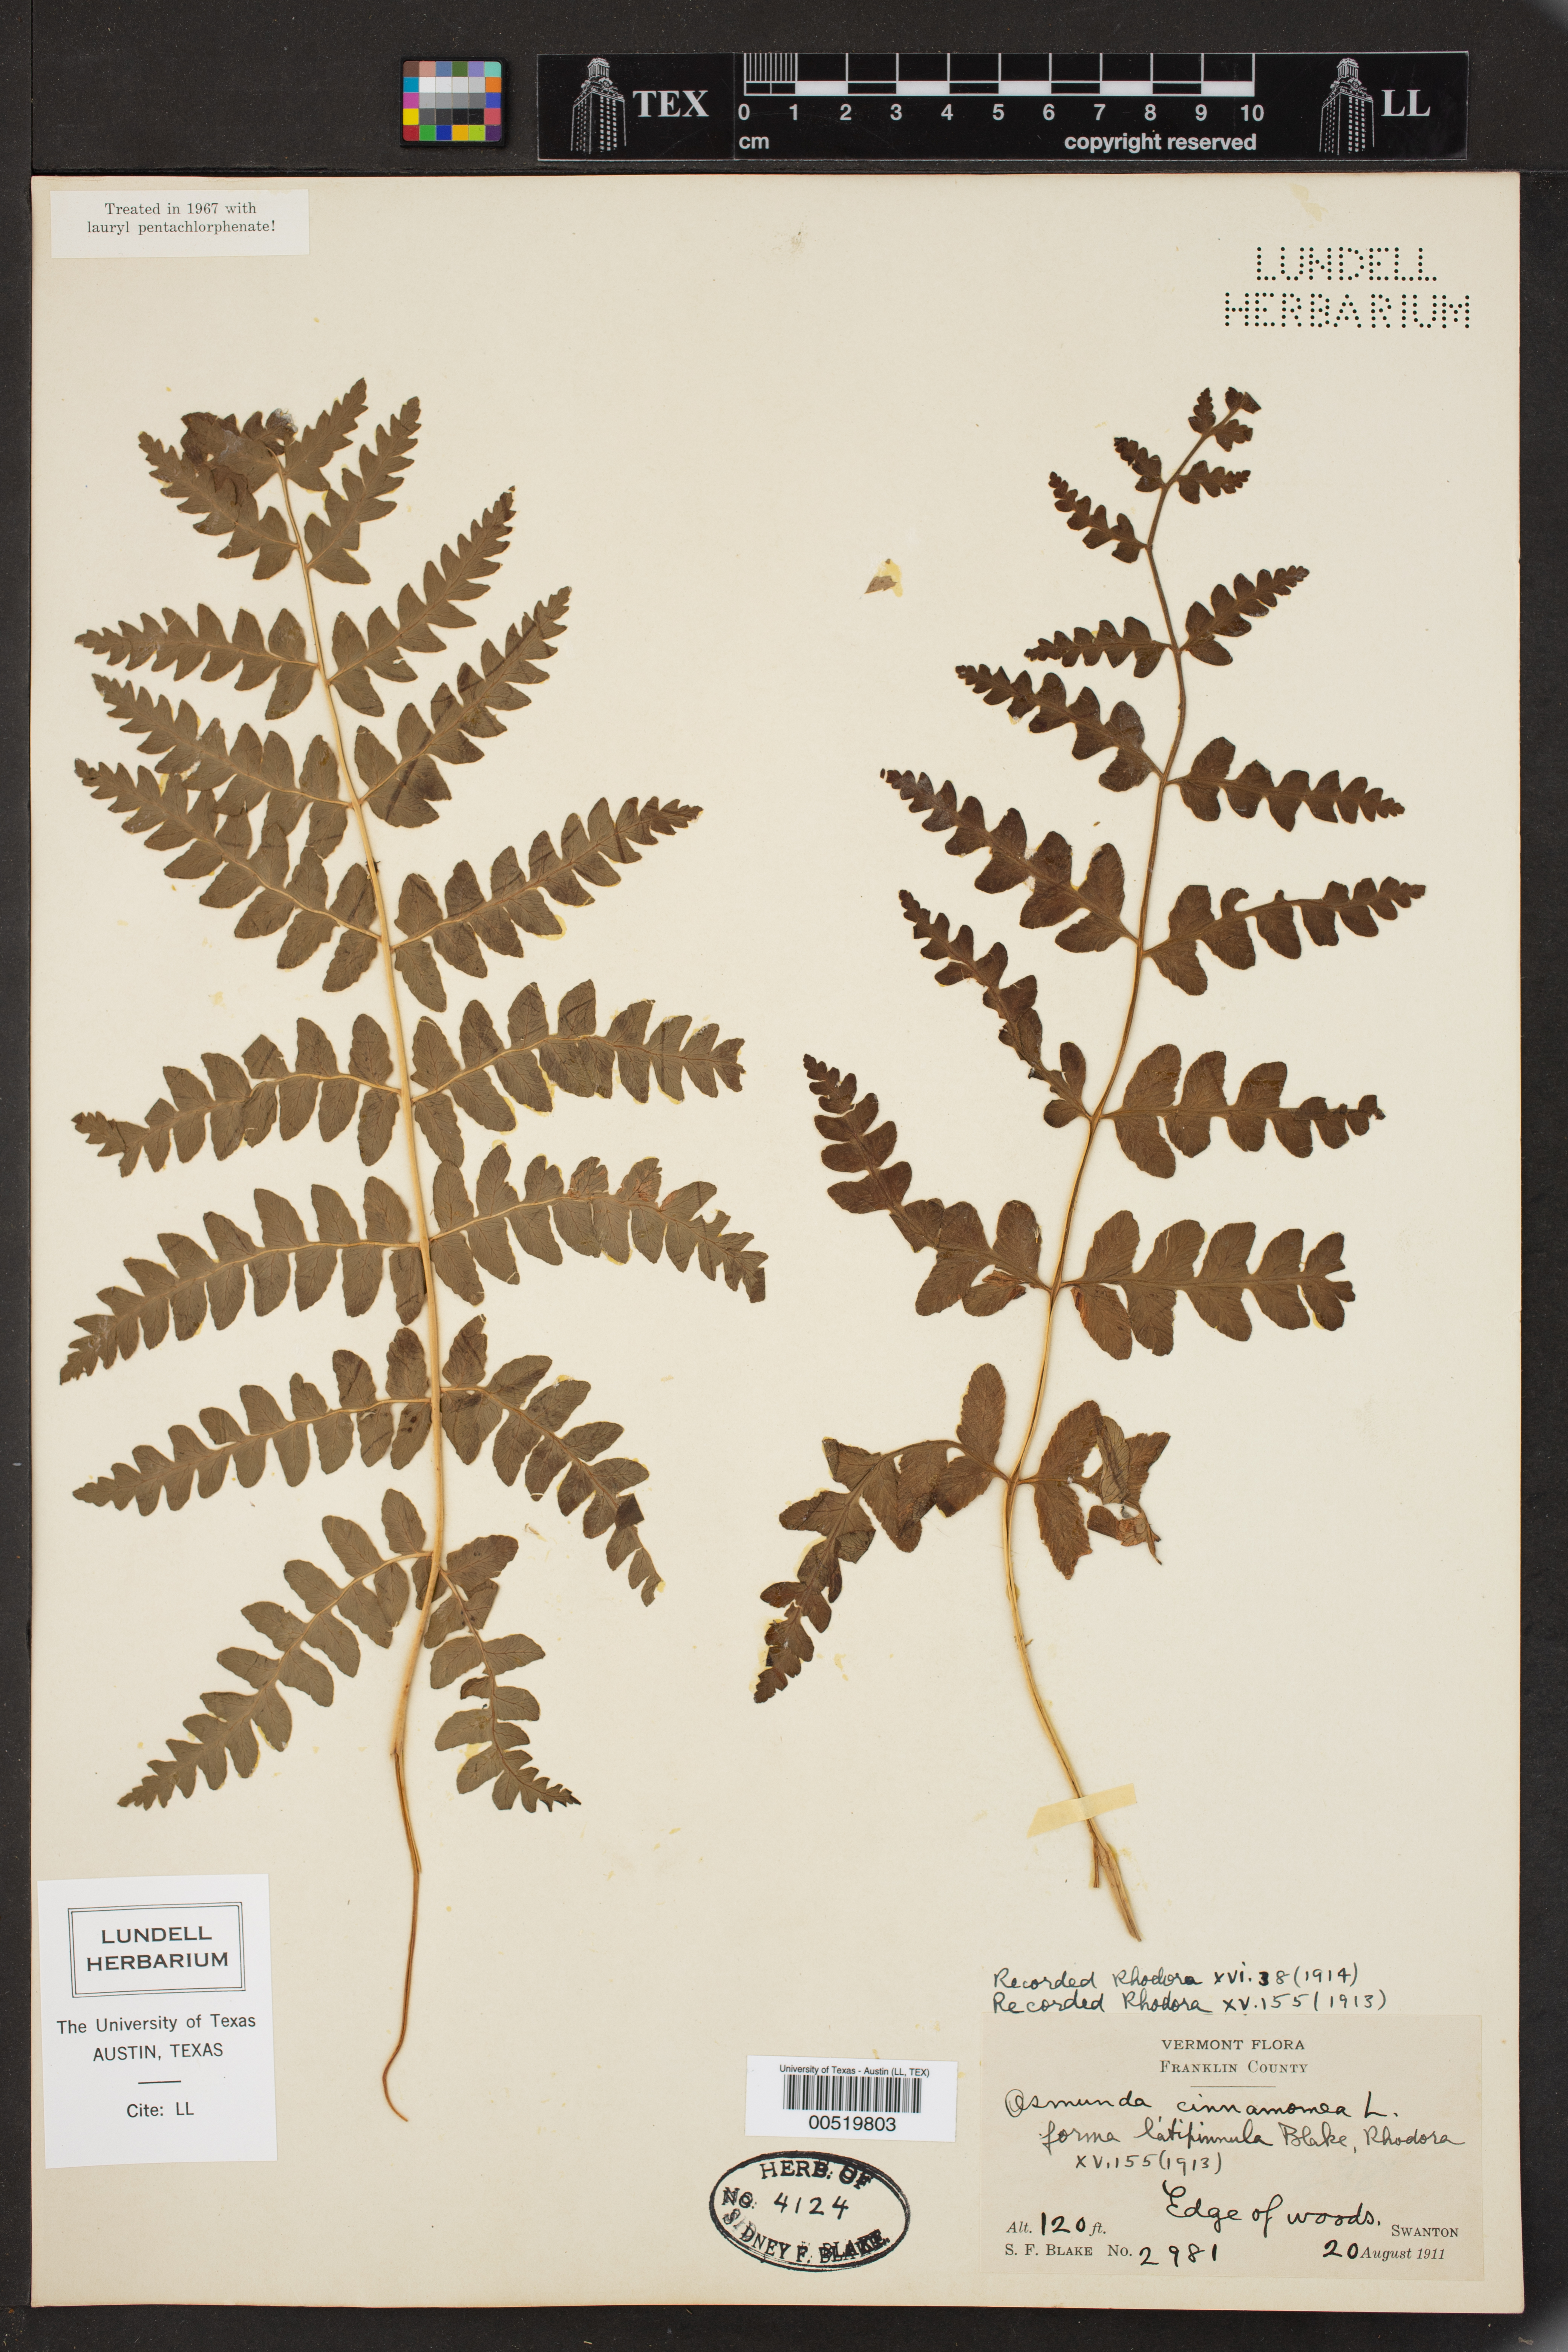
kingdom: Plantae
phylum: Tracheophyta
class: Polypodiopsida
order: Osmundales
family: Osmundaceae
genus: Osmundastrum
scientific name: Osmundastrum cinnamomeum
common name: Cinnamon fern
